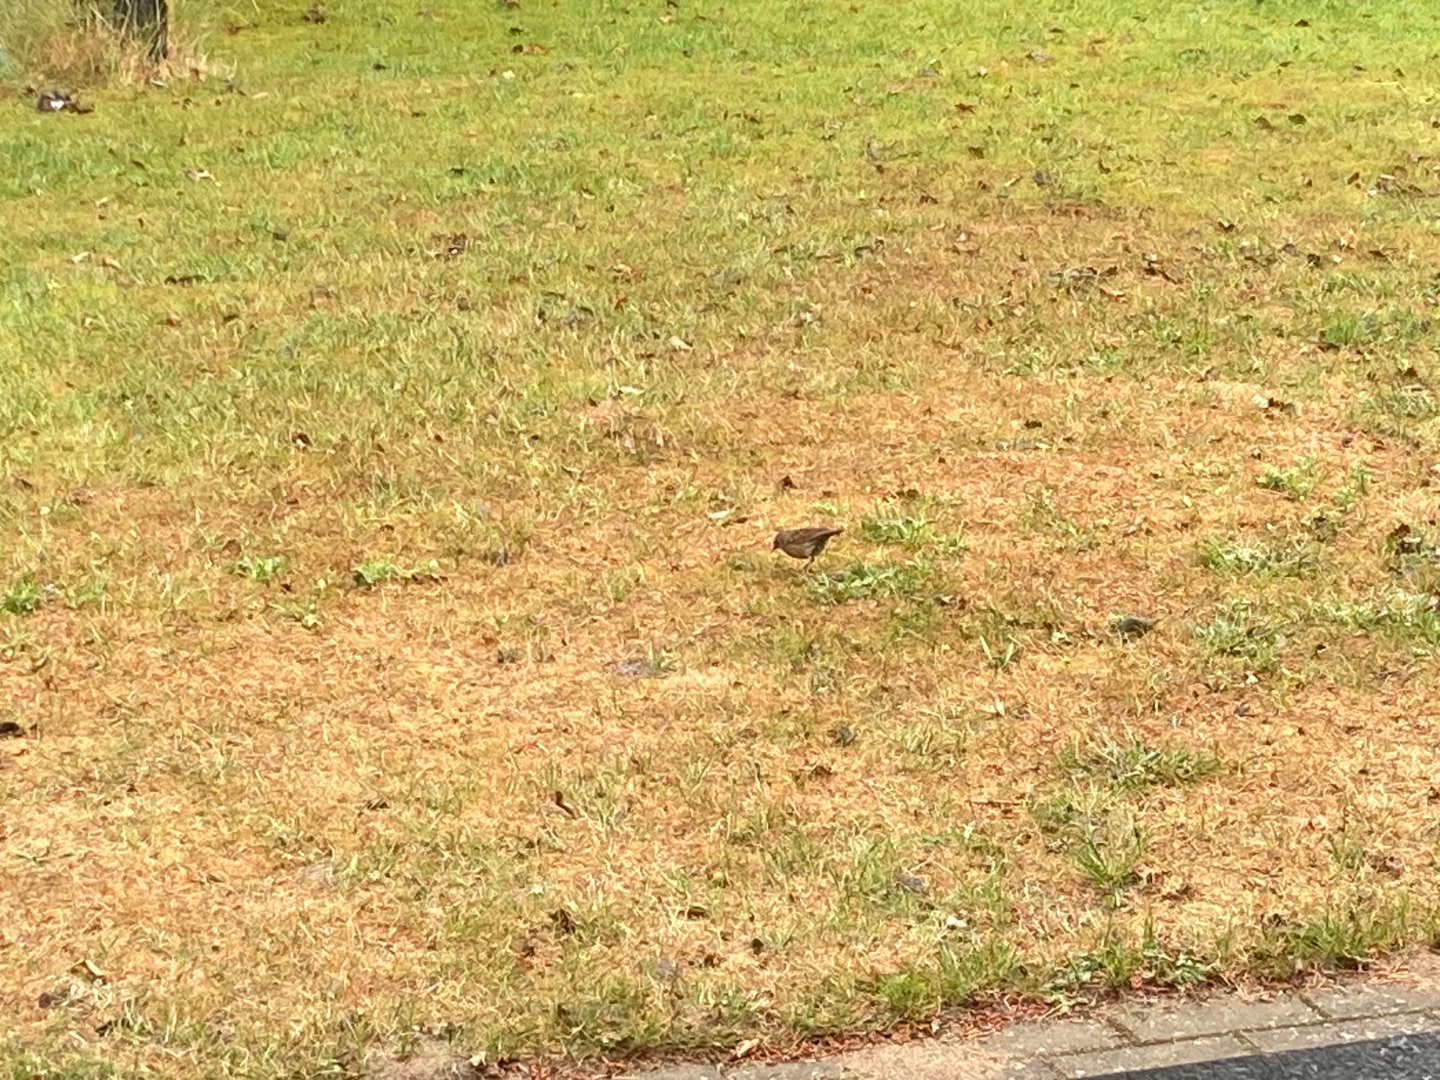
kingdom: Animalia
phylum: Chordata
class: Aves
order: Passeriformes
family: Prunellidae
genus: Prunella
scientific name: Prunella modularis
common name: Jernspurv
